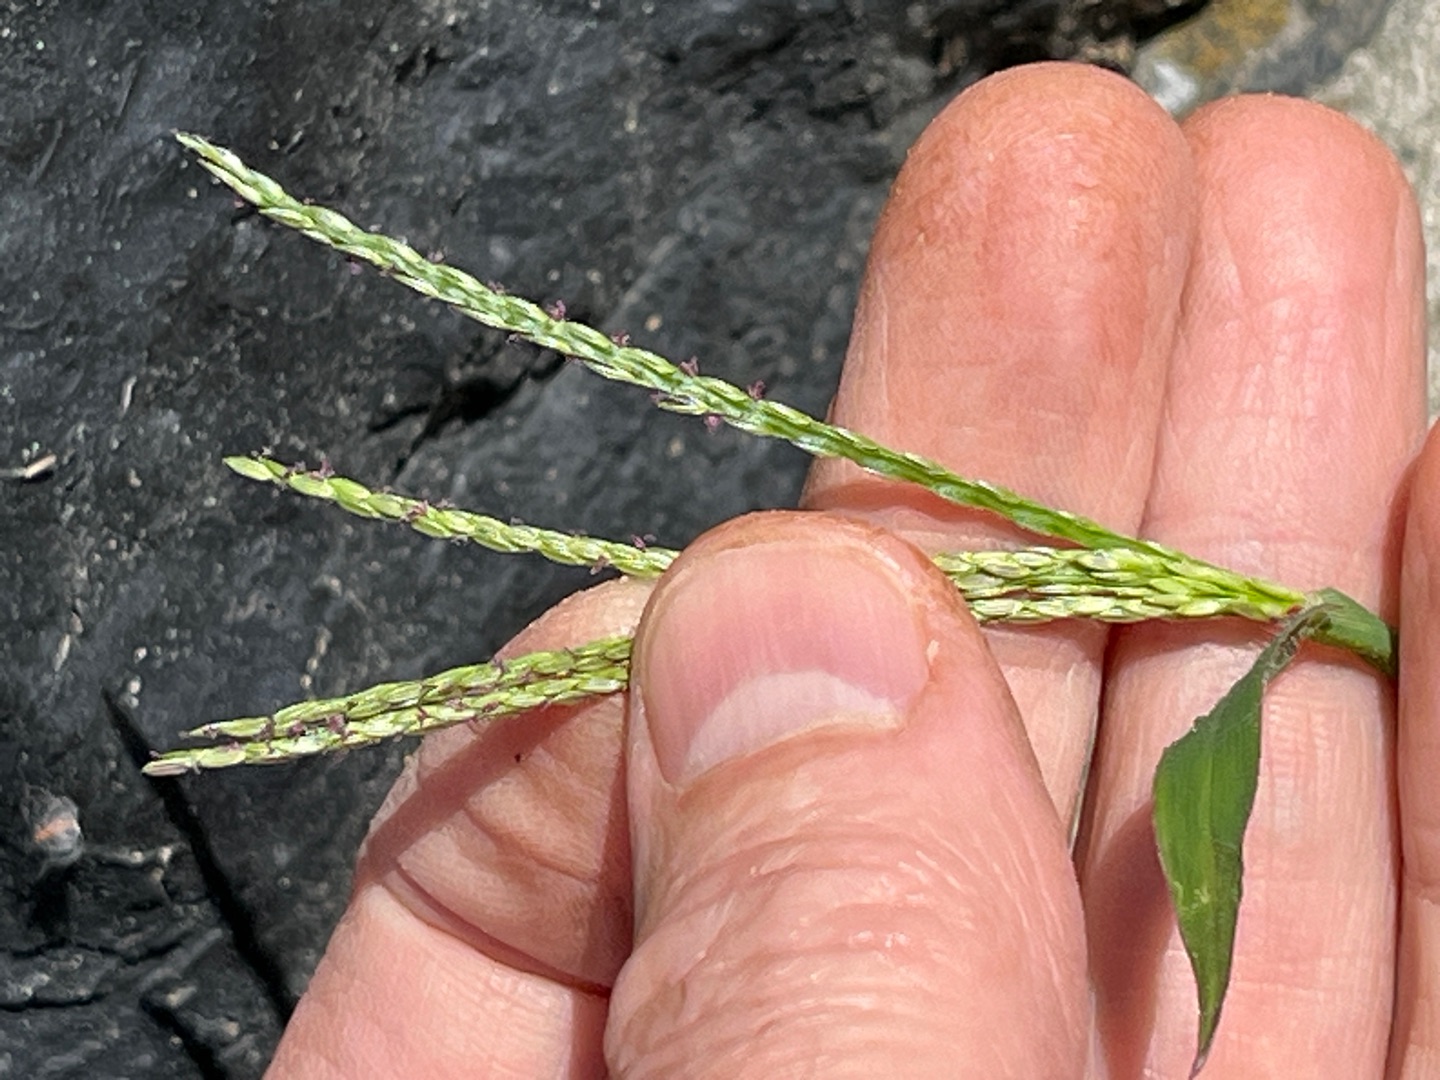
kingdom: Plantae
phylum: Tracheophyta
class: Liliopsida
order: Poales
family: Poaceae
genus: Digitaria
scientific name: Digitaria sanguinalis
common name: Blodhirse
